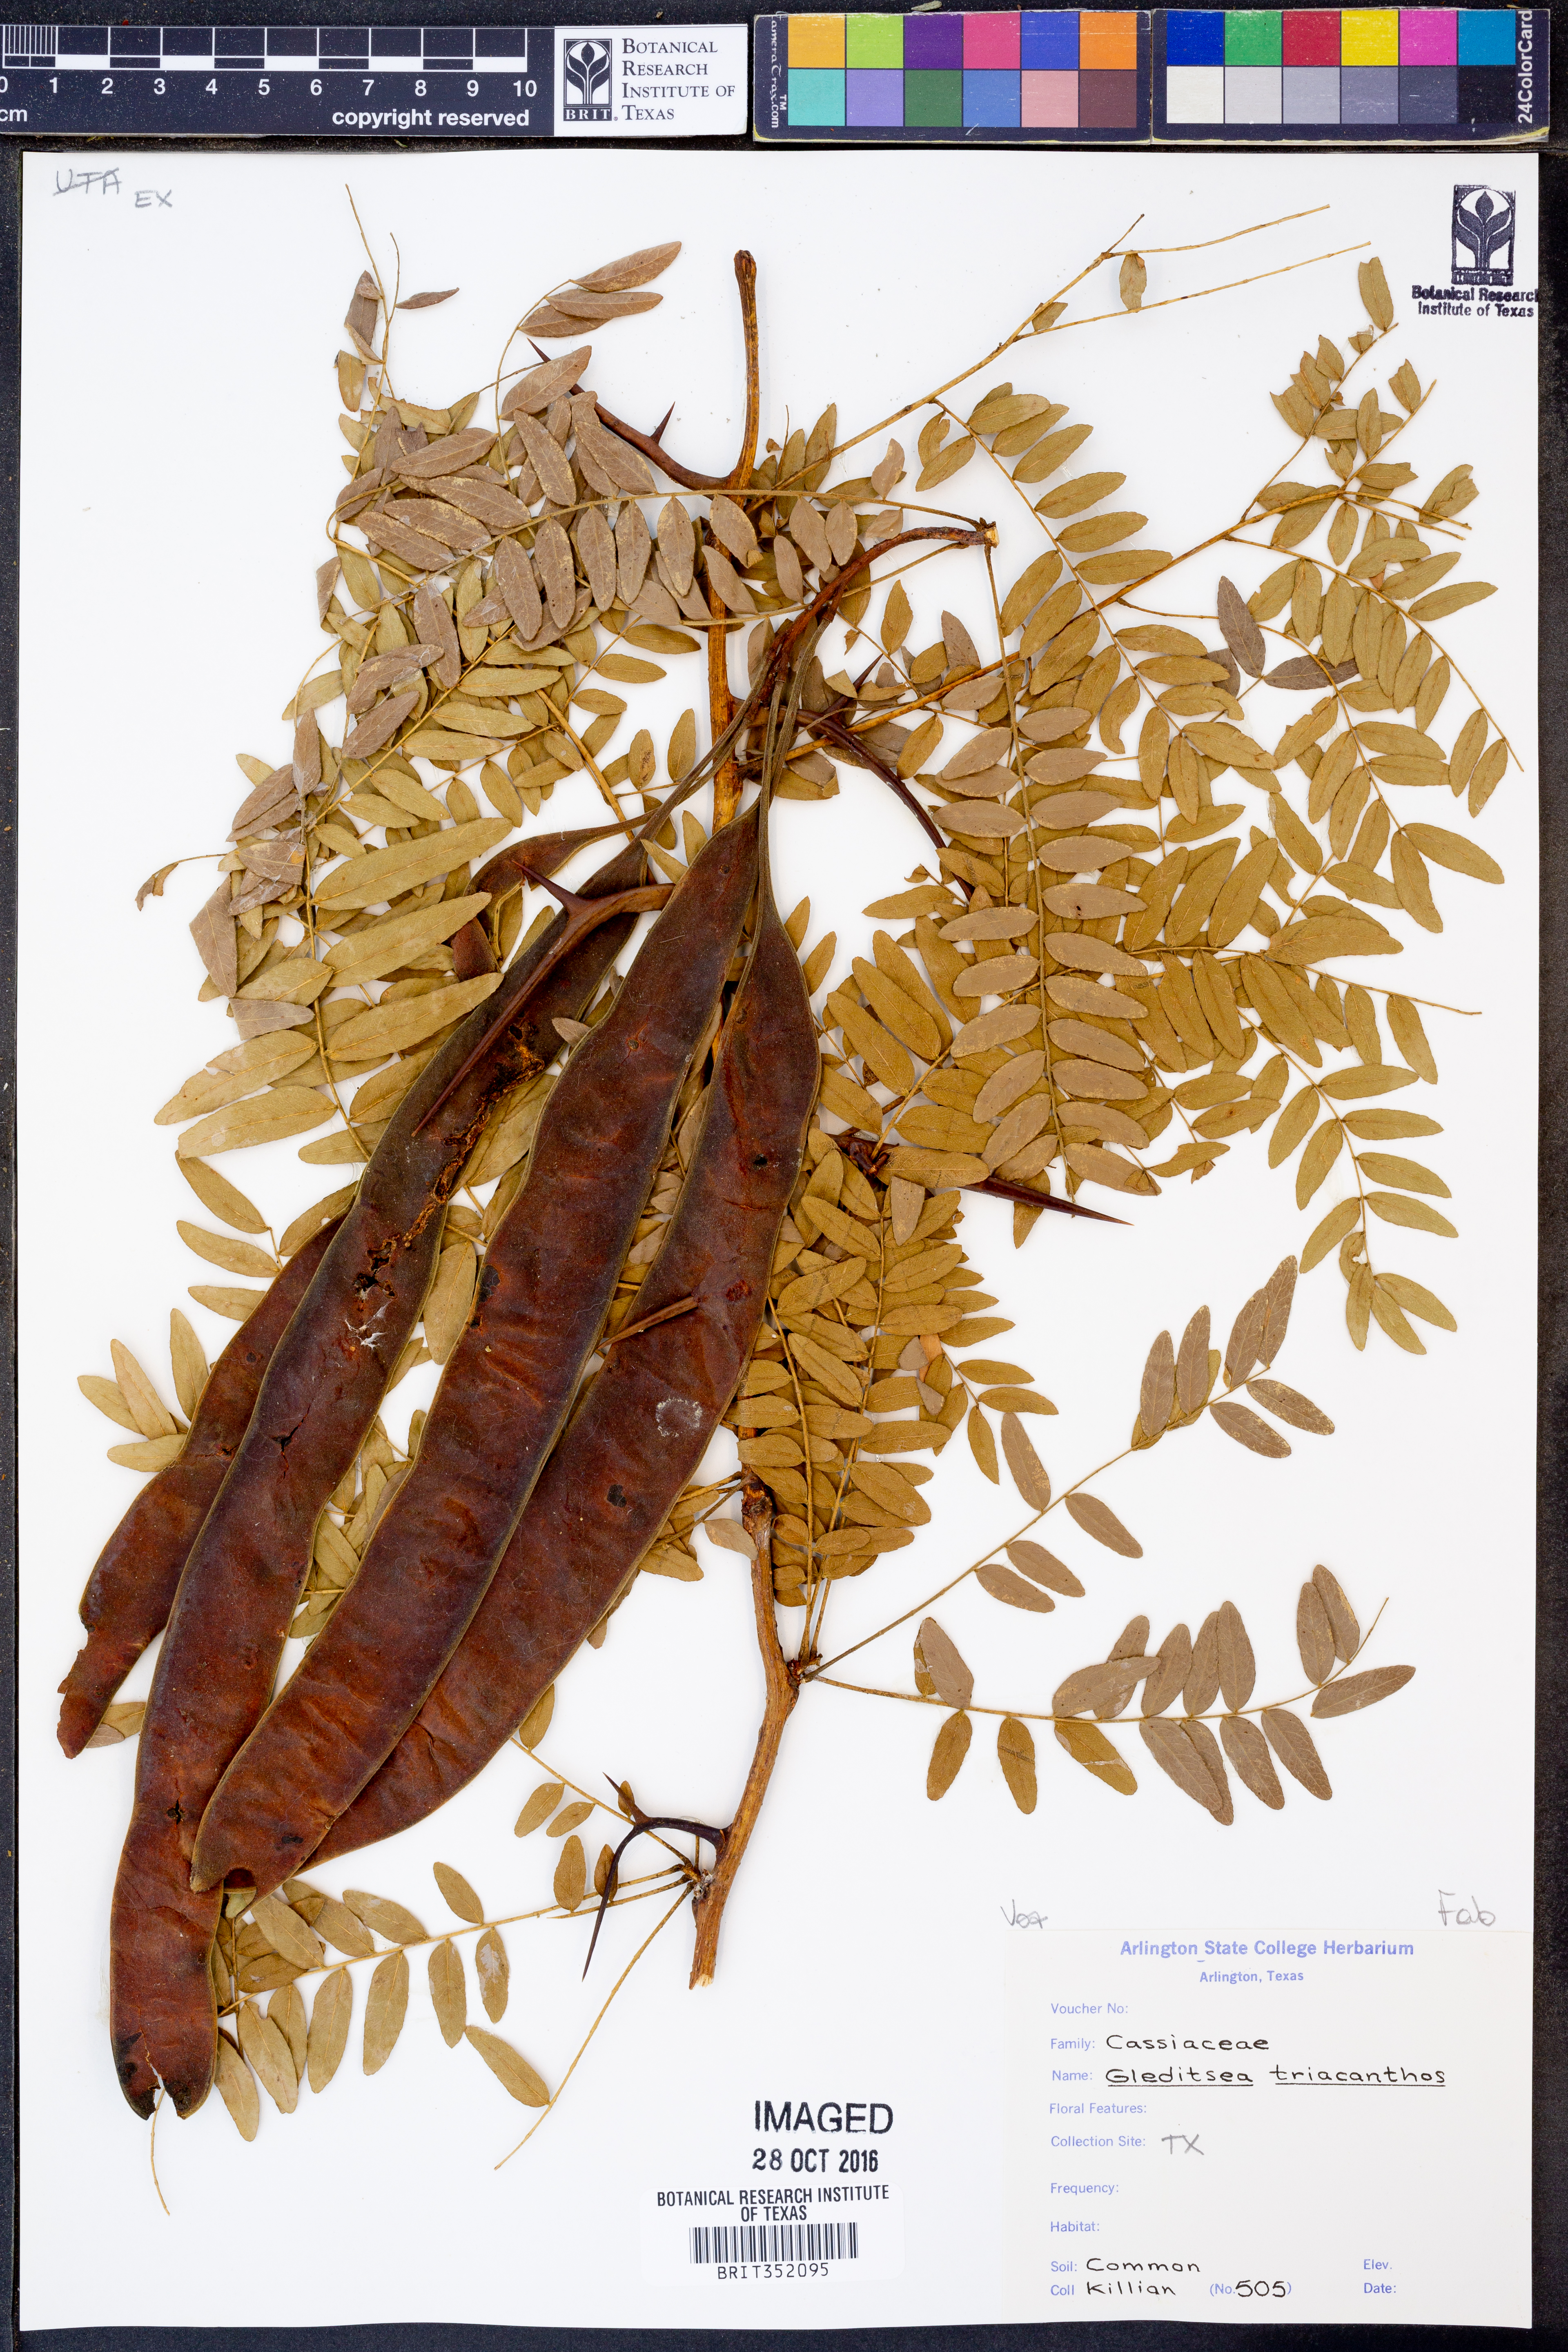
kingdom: Plantae
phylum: Tracheophyta
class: Magnoliopsida
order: Fabales
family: Fabaceae
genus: Gleditsia
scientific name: Gleditsia triacanthos
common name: Common honeylocust
